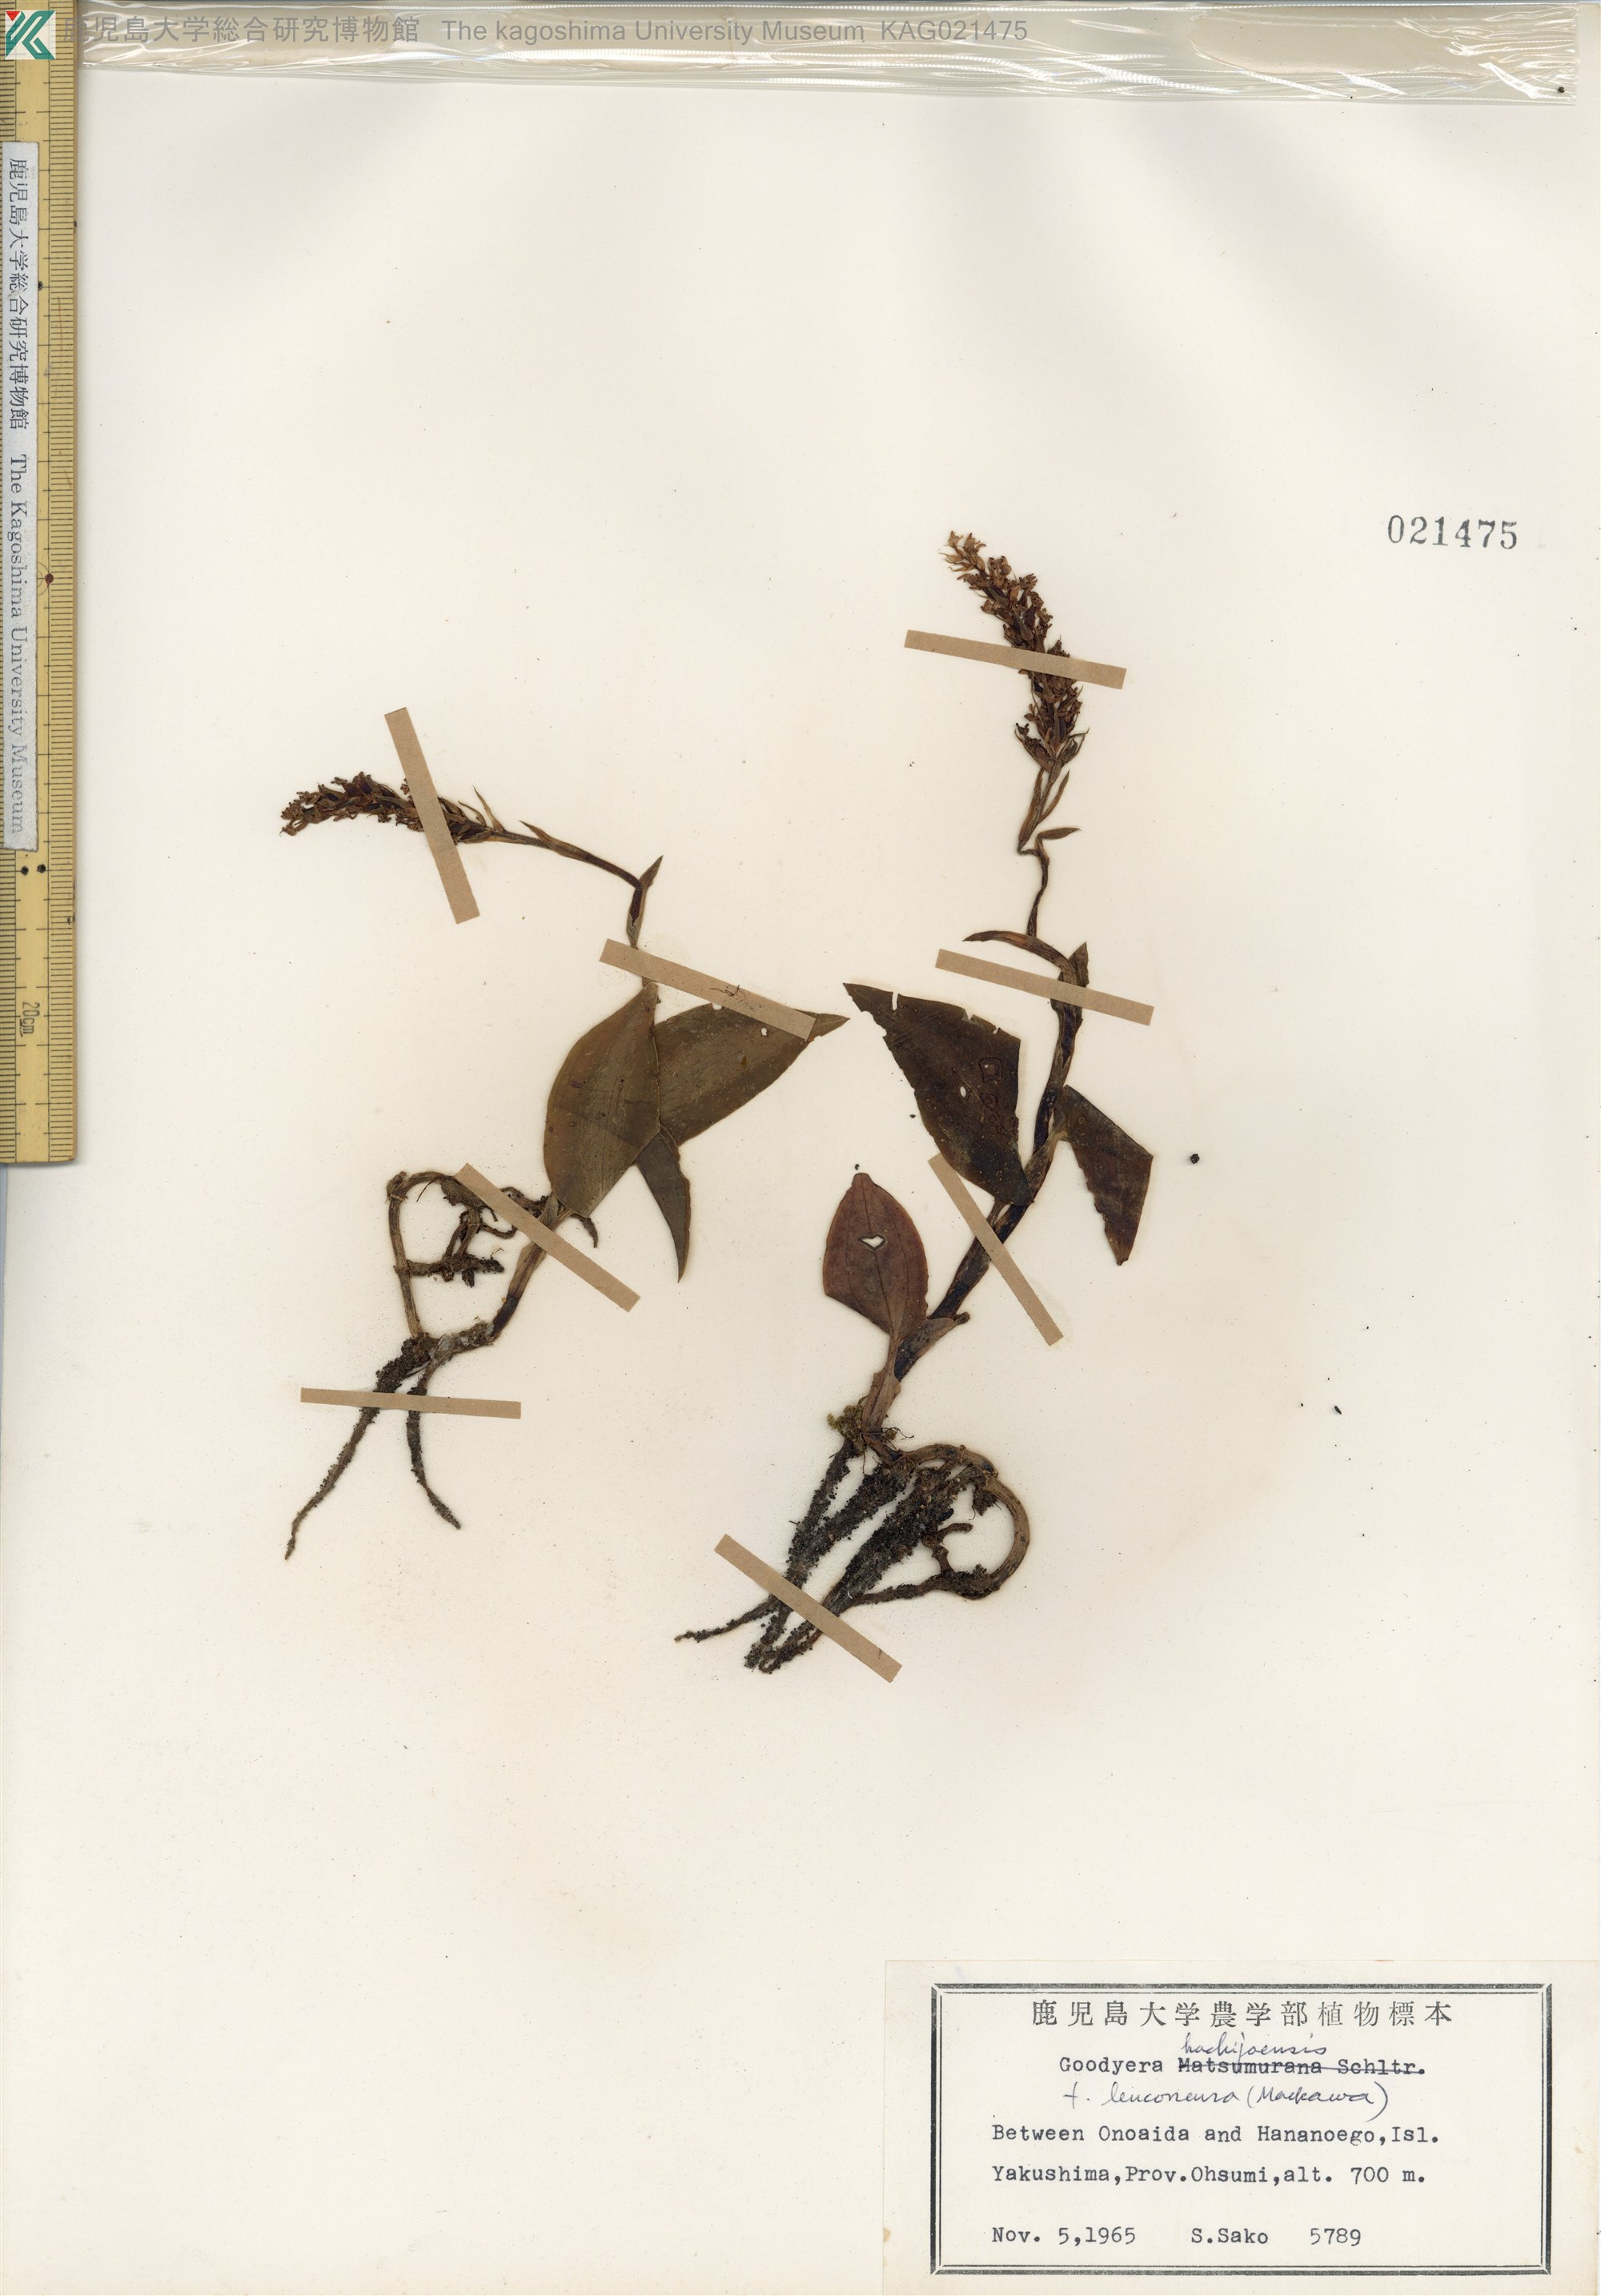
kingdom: Plantae
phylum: Tracheophyta
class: Liliopsida
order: Asparagales
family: Orchidaceae
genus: Goodyera
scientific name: Goodyera hachijoensis
